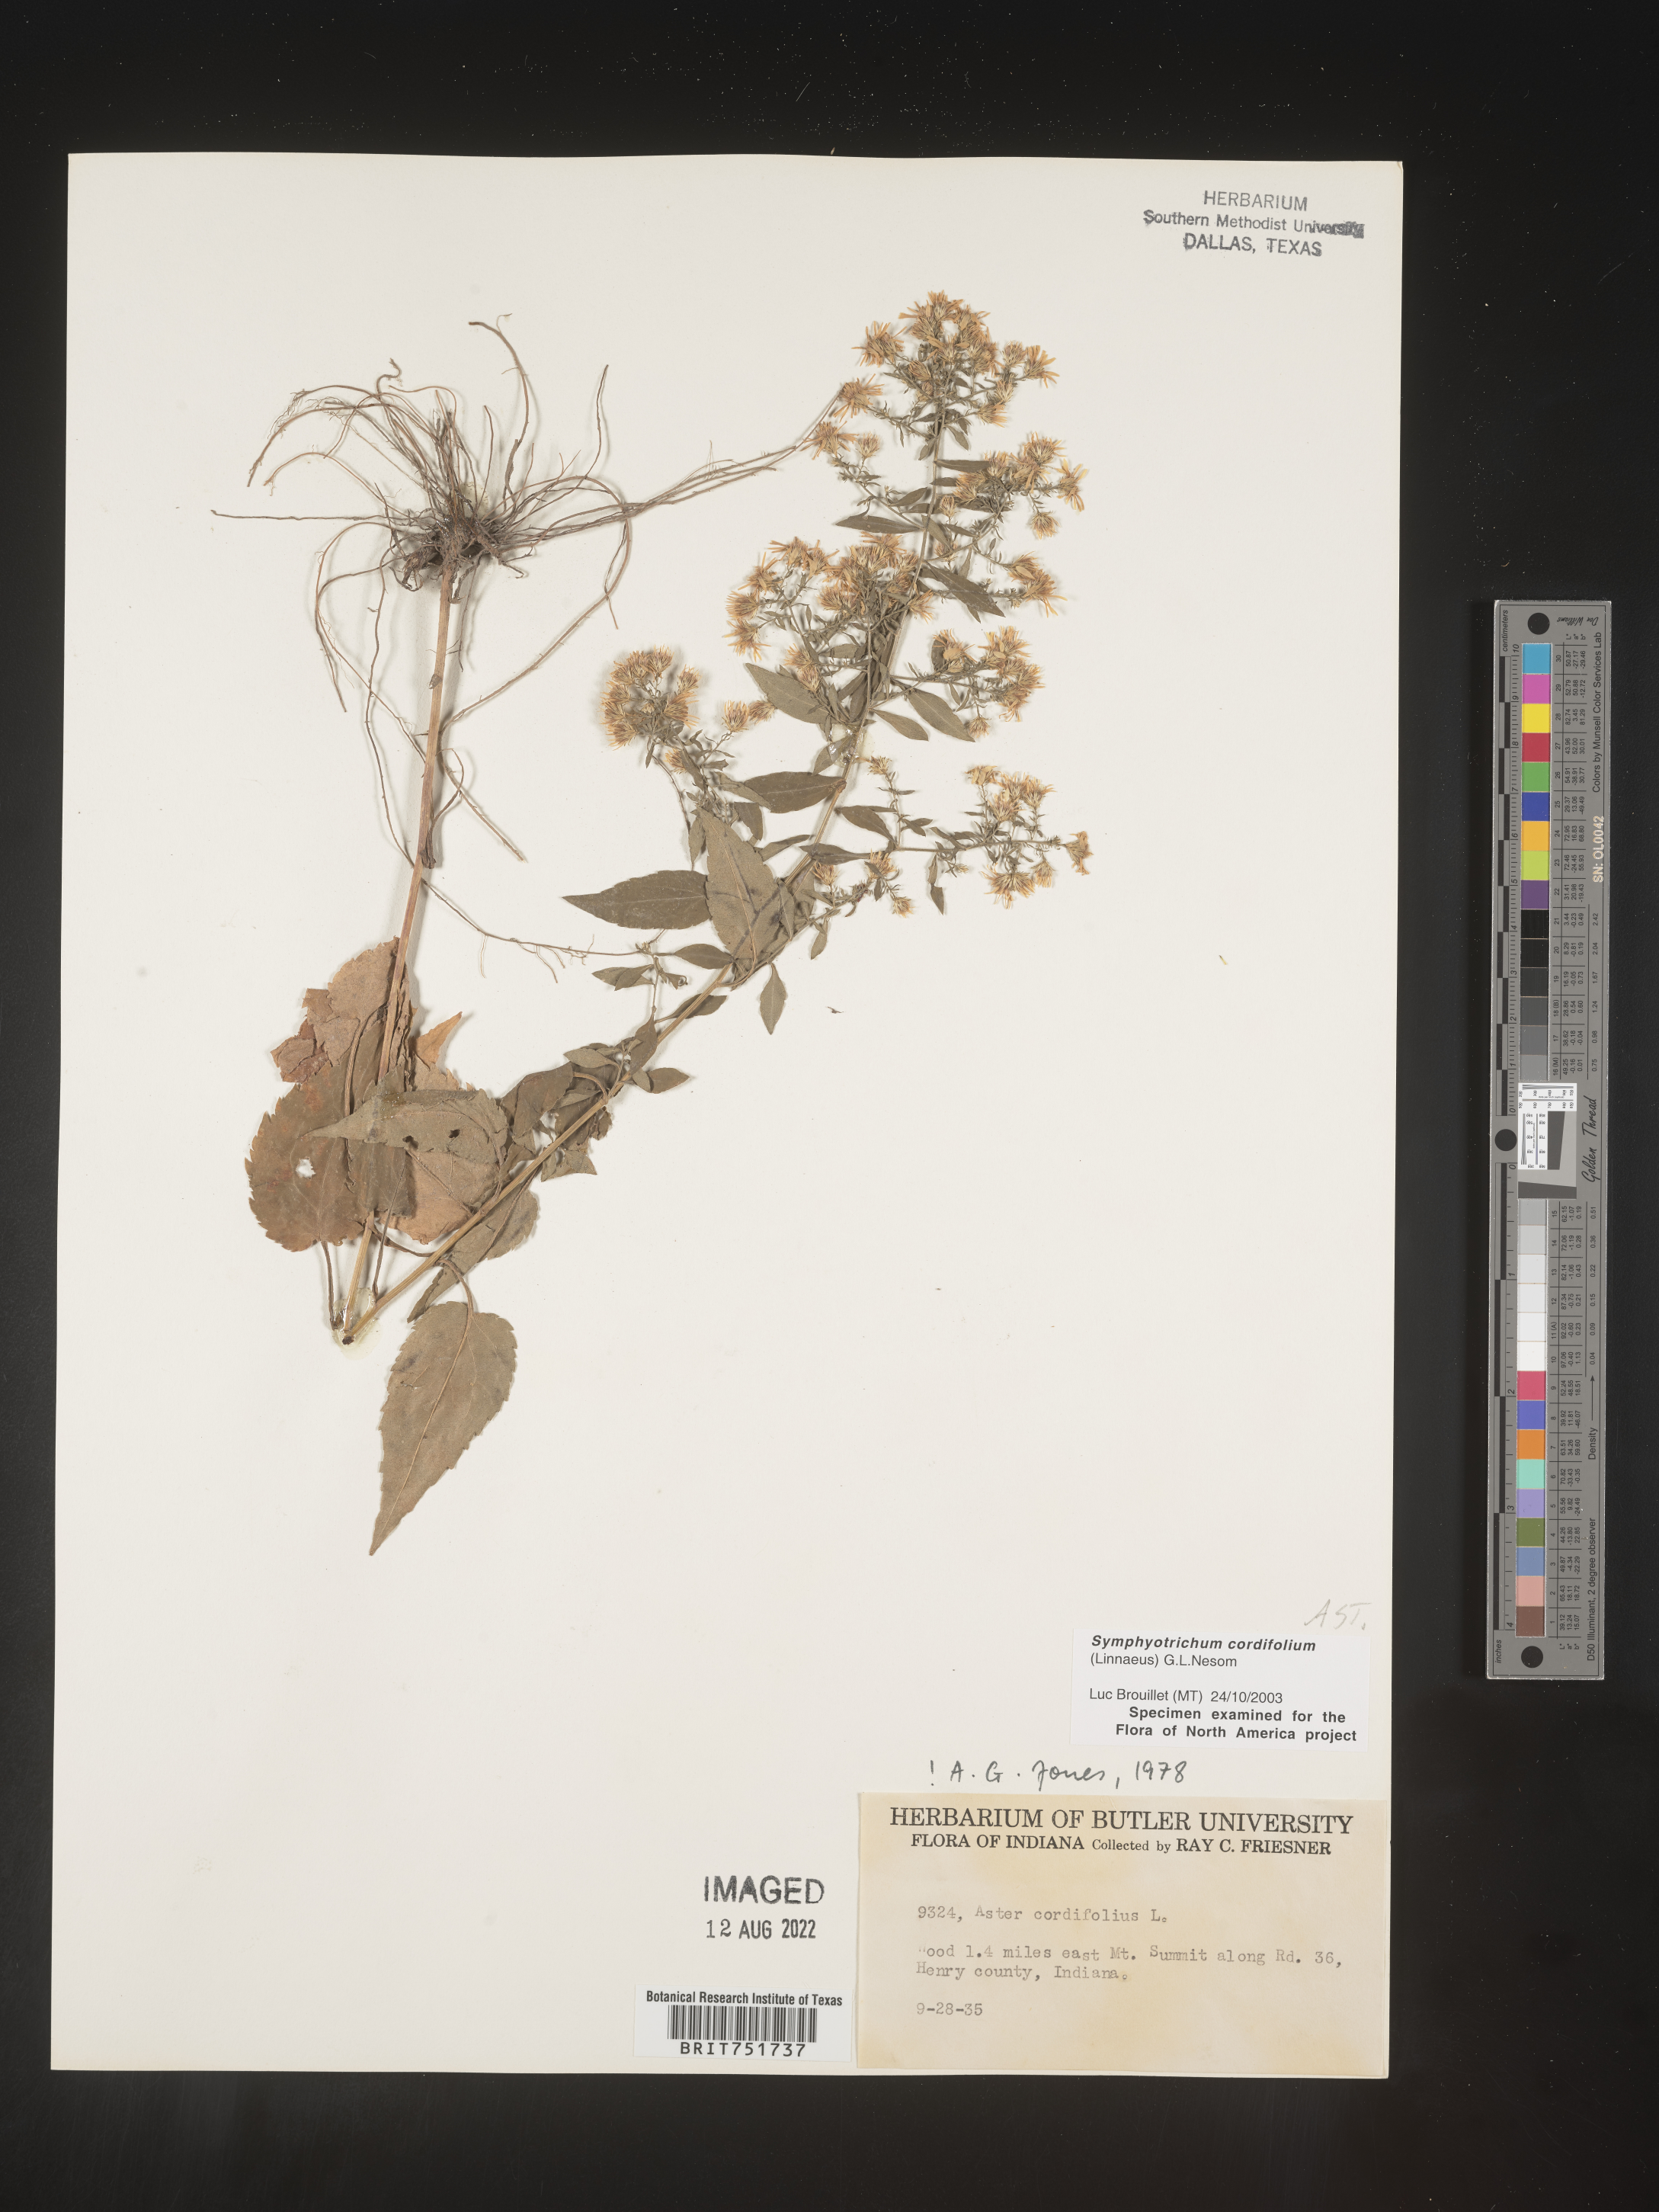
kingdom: Plantae
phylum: Tracheophyta
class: Magnoliopsida
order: Asterales
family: Asteraceae
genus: Symphyotrichum
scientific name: Symphyotrichum cordifolium
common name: Beeweed
